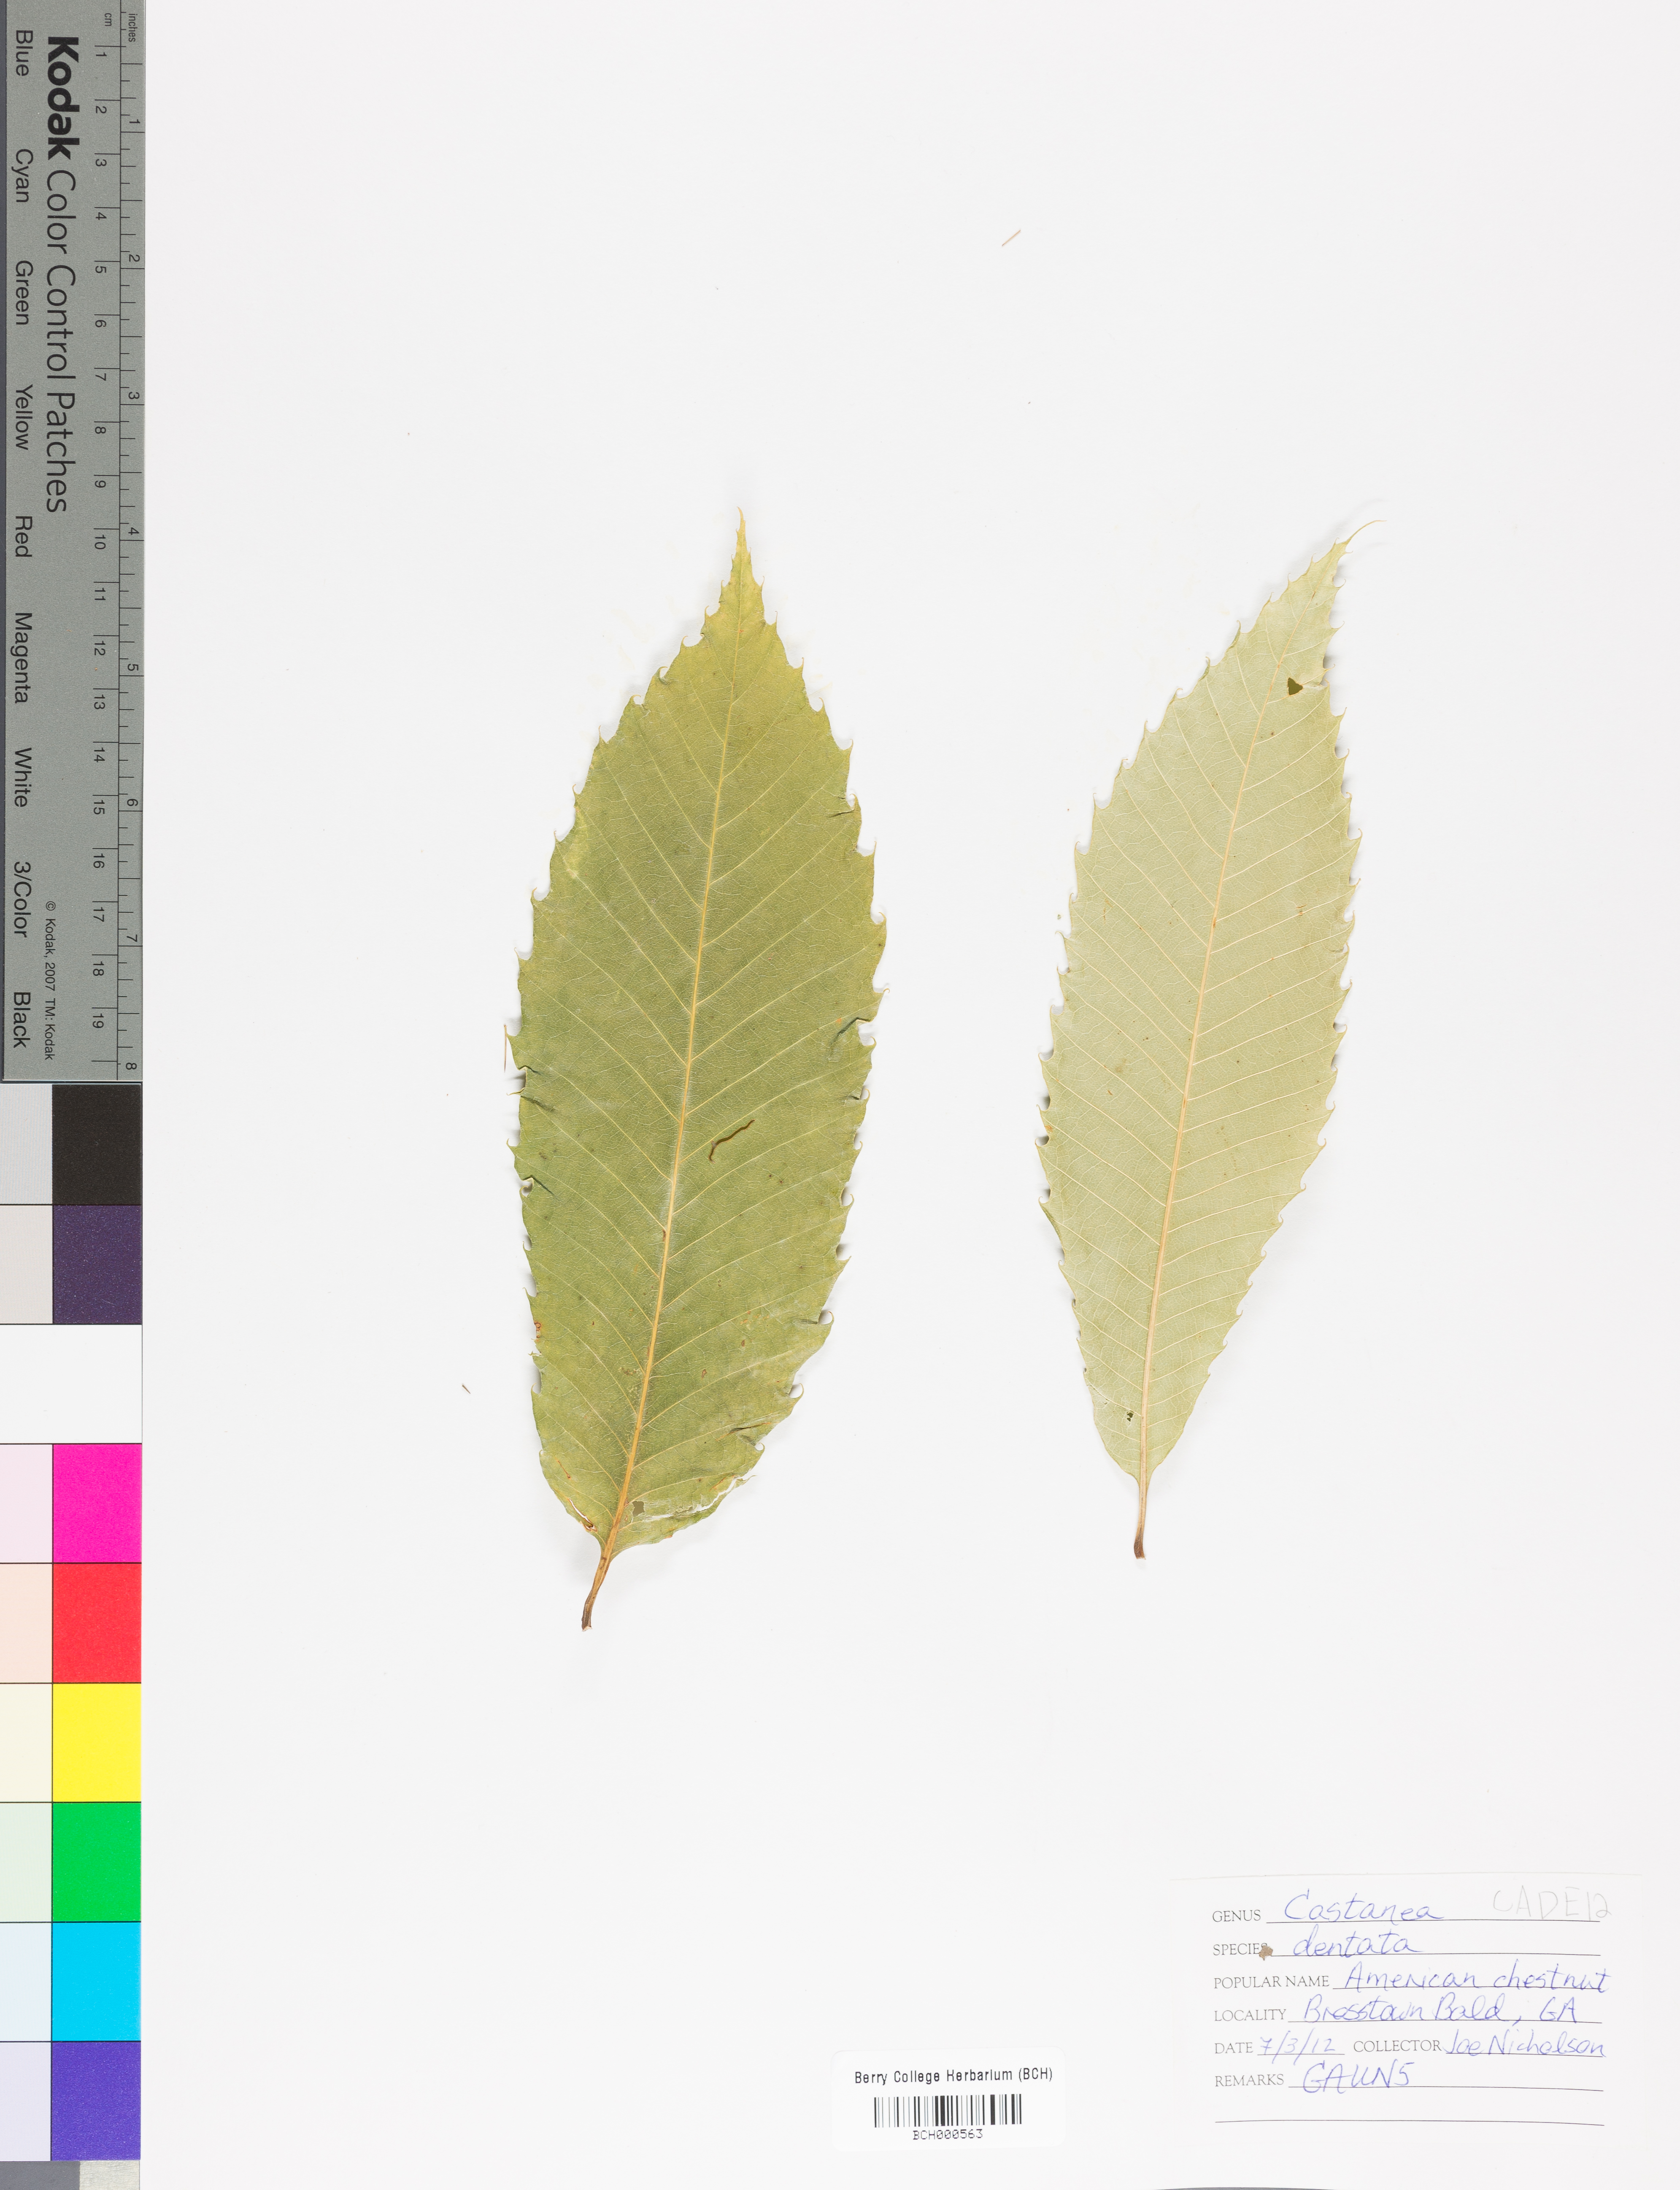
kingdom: Plantae
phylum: Tracheophyta
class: Magnoliopsida
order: Fagales
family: Fagaceae
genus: Castanea
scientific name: Castanea dentata
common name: American chestnut
